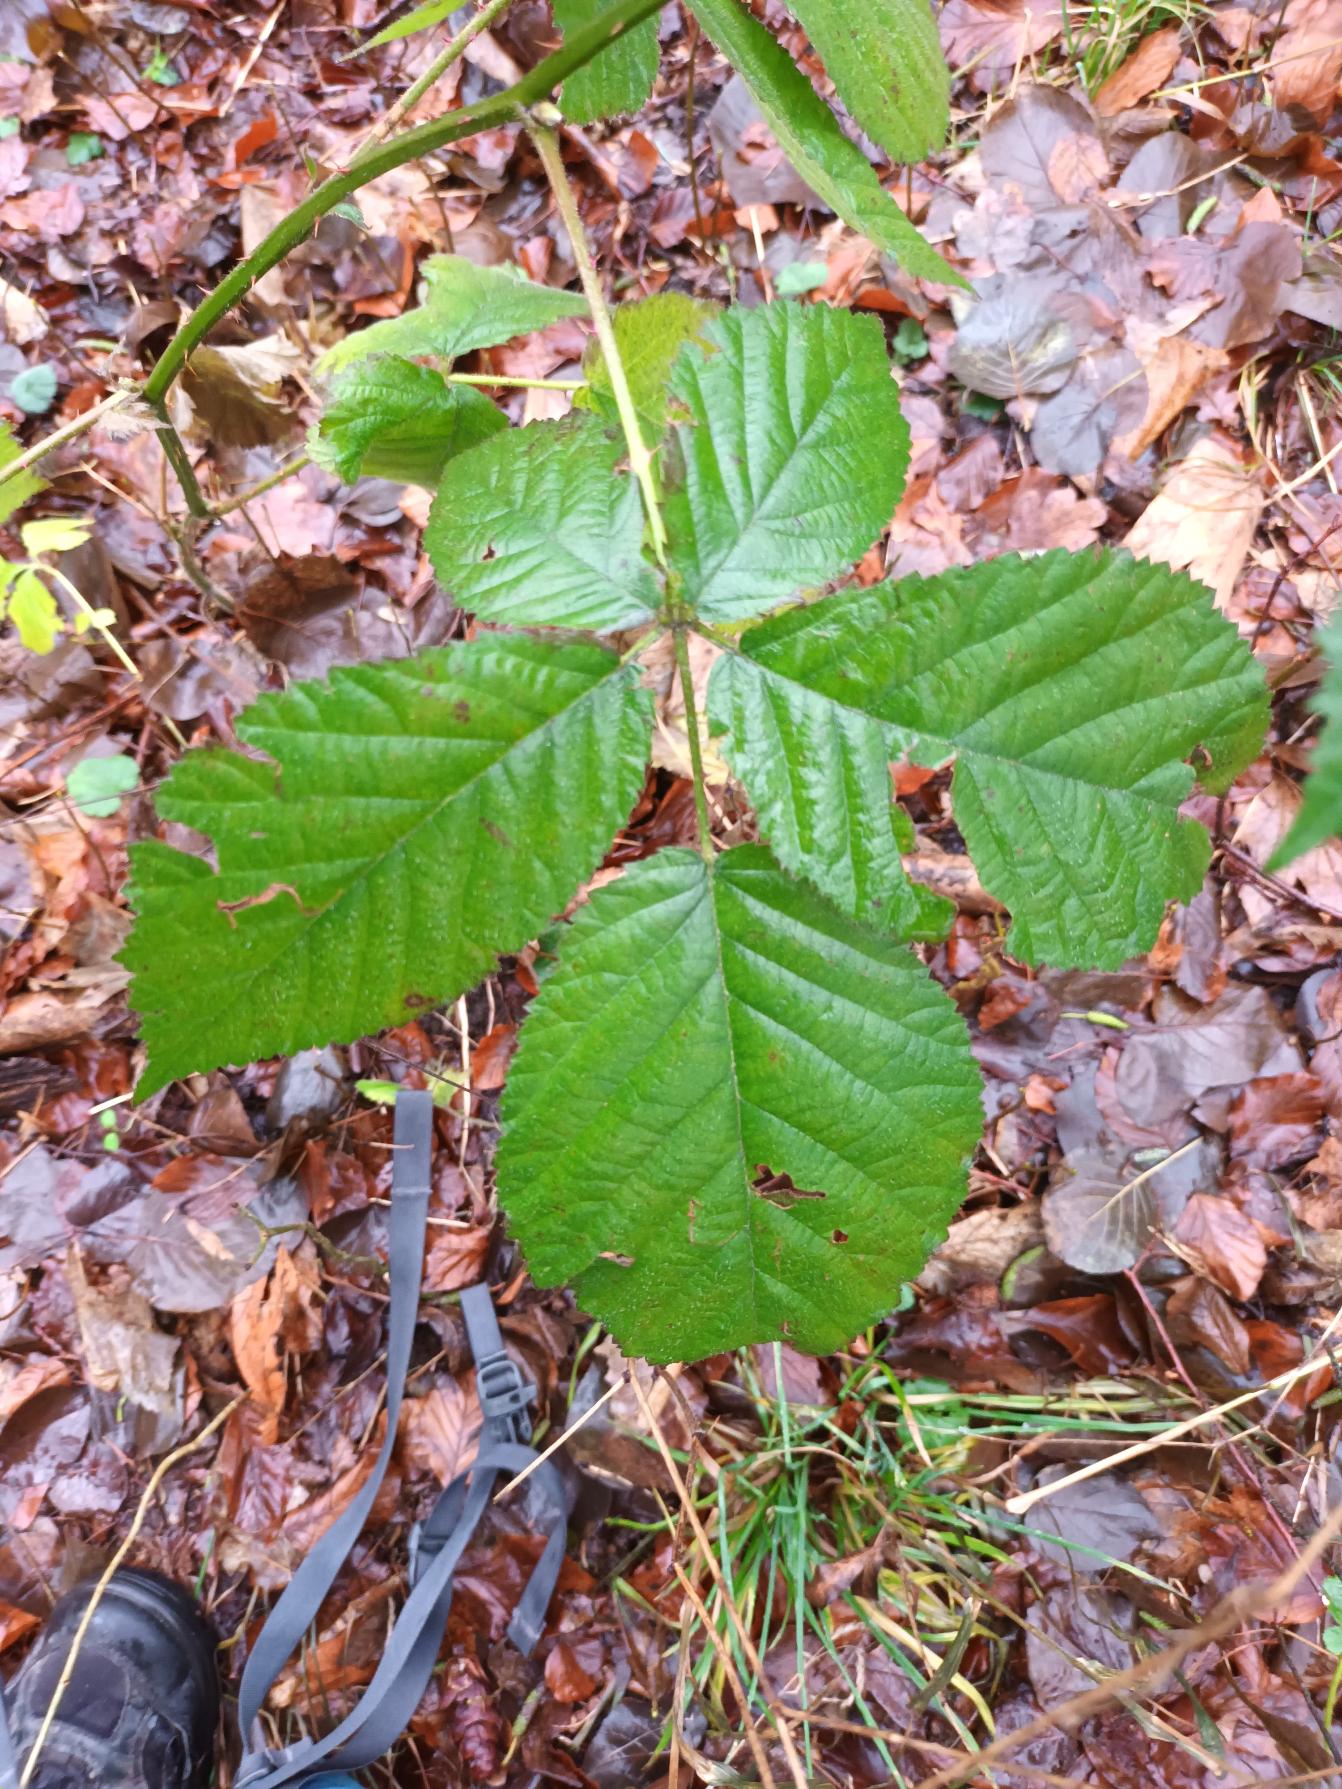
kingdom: Plantae
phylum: Tracheophyta
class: Magnoliopsida
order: Rosales
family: Rosaceae
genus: Rubus
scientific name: Rubus scissus
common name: Syl-brombær
